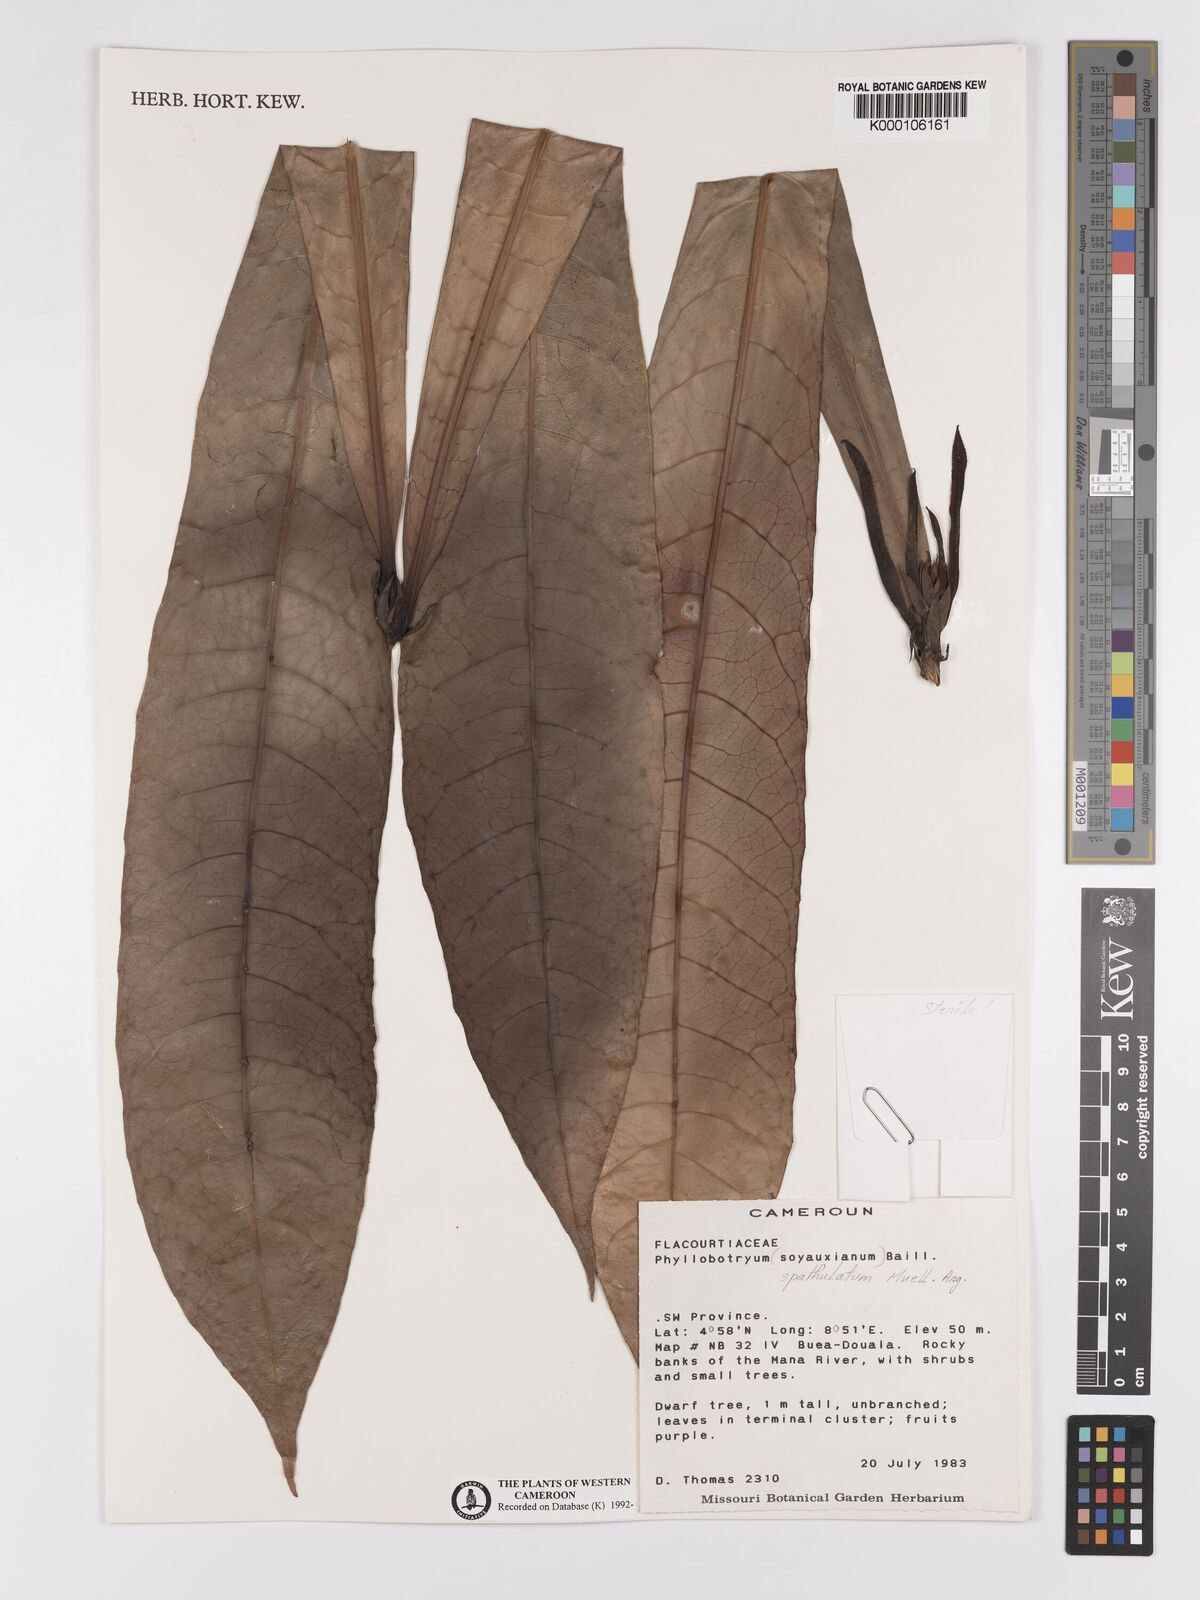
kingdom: Plantae
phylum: Tracheophyta
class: Magnoliopsida
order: Malpighiales
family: Salicaceae
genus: Phyllobotryon
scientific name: Phyllobotryon
